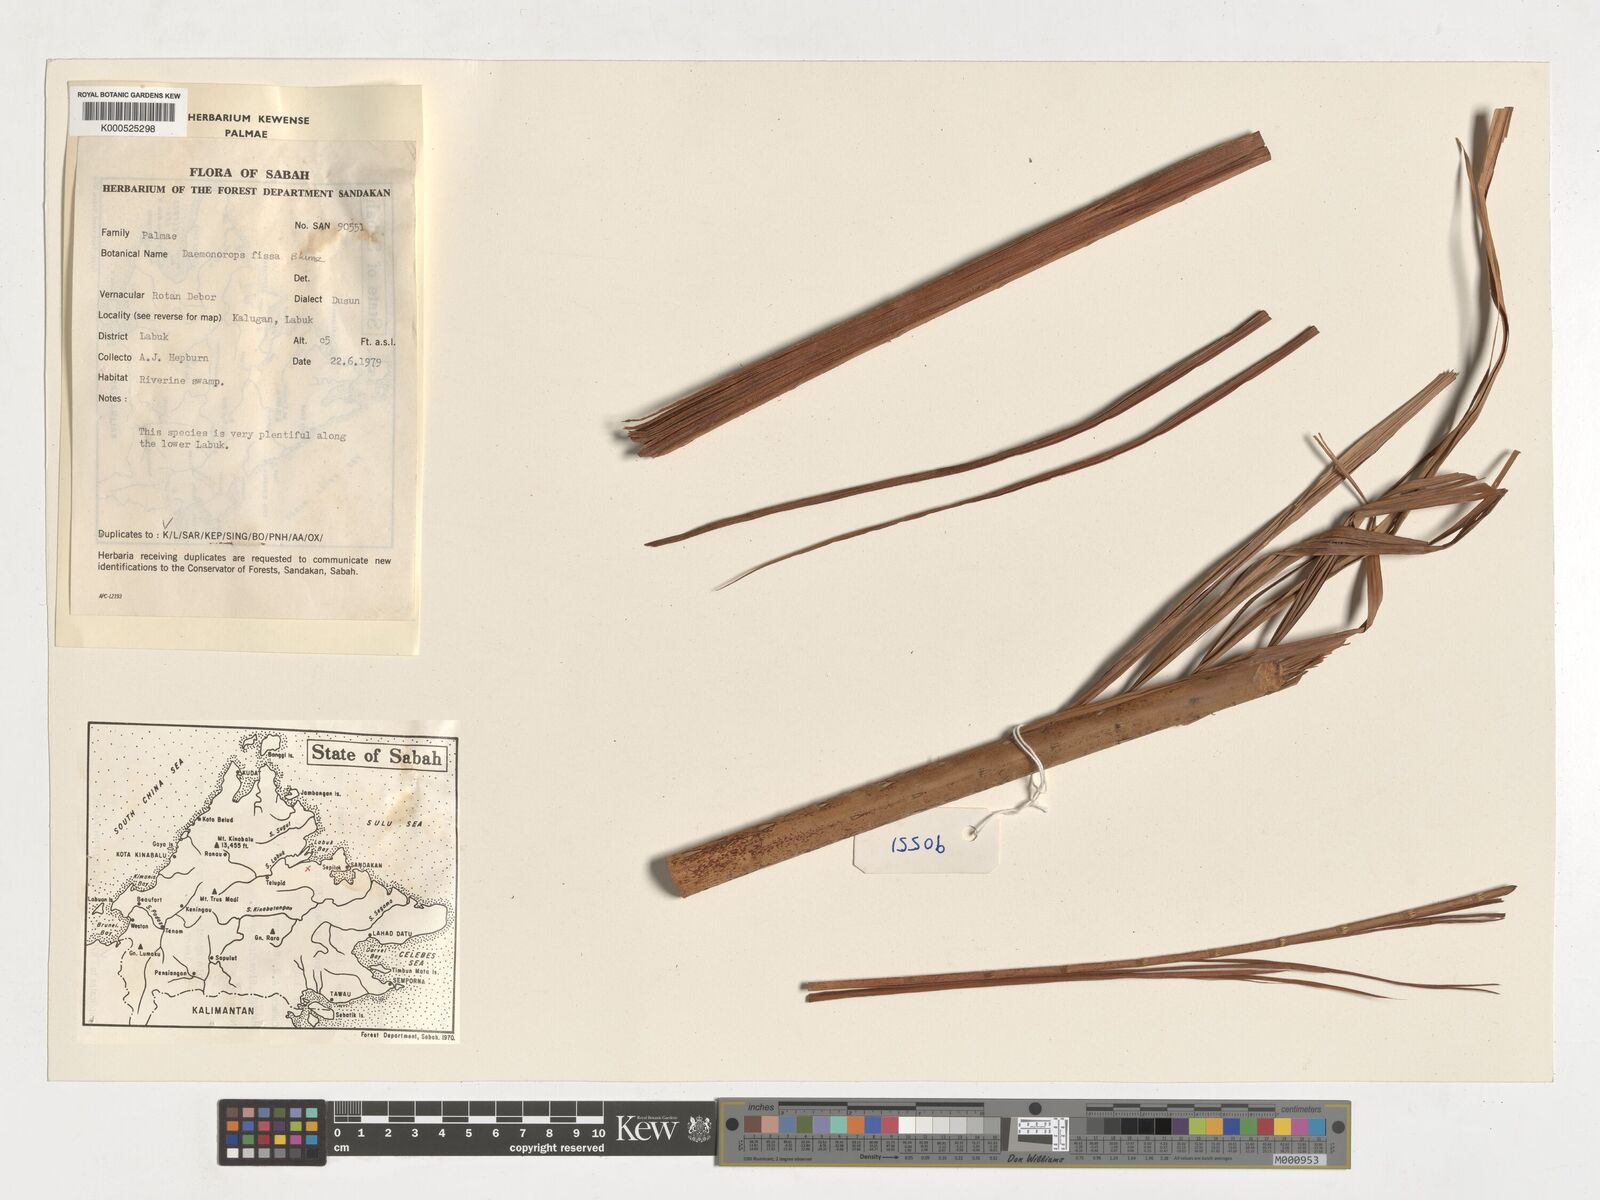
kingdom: Plantae
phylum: Tracheophyta
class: Liliopsida
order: Arecales
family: Arecaceae
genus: Calamus
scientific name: Calamus melanochaetes
